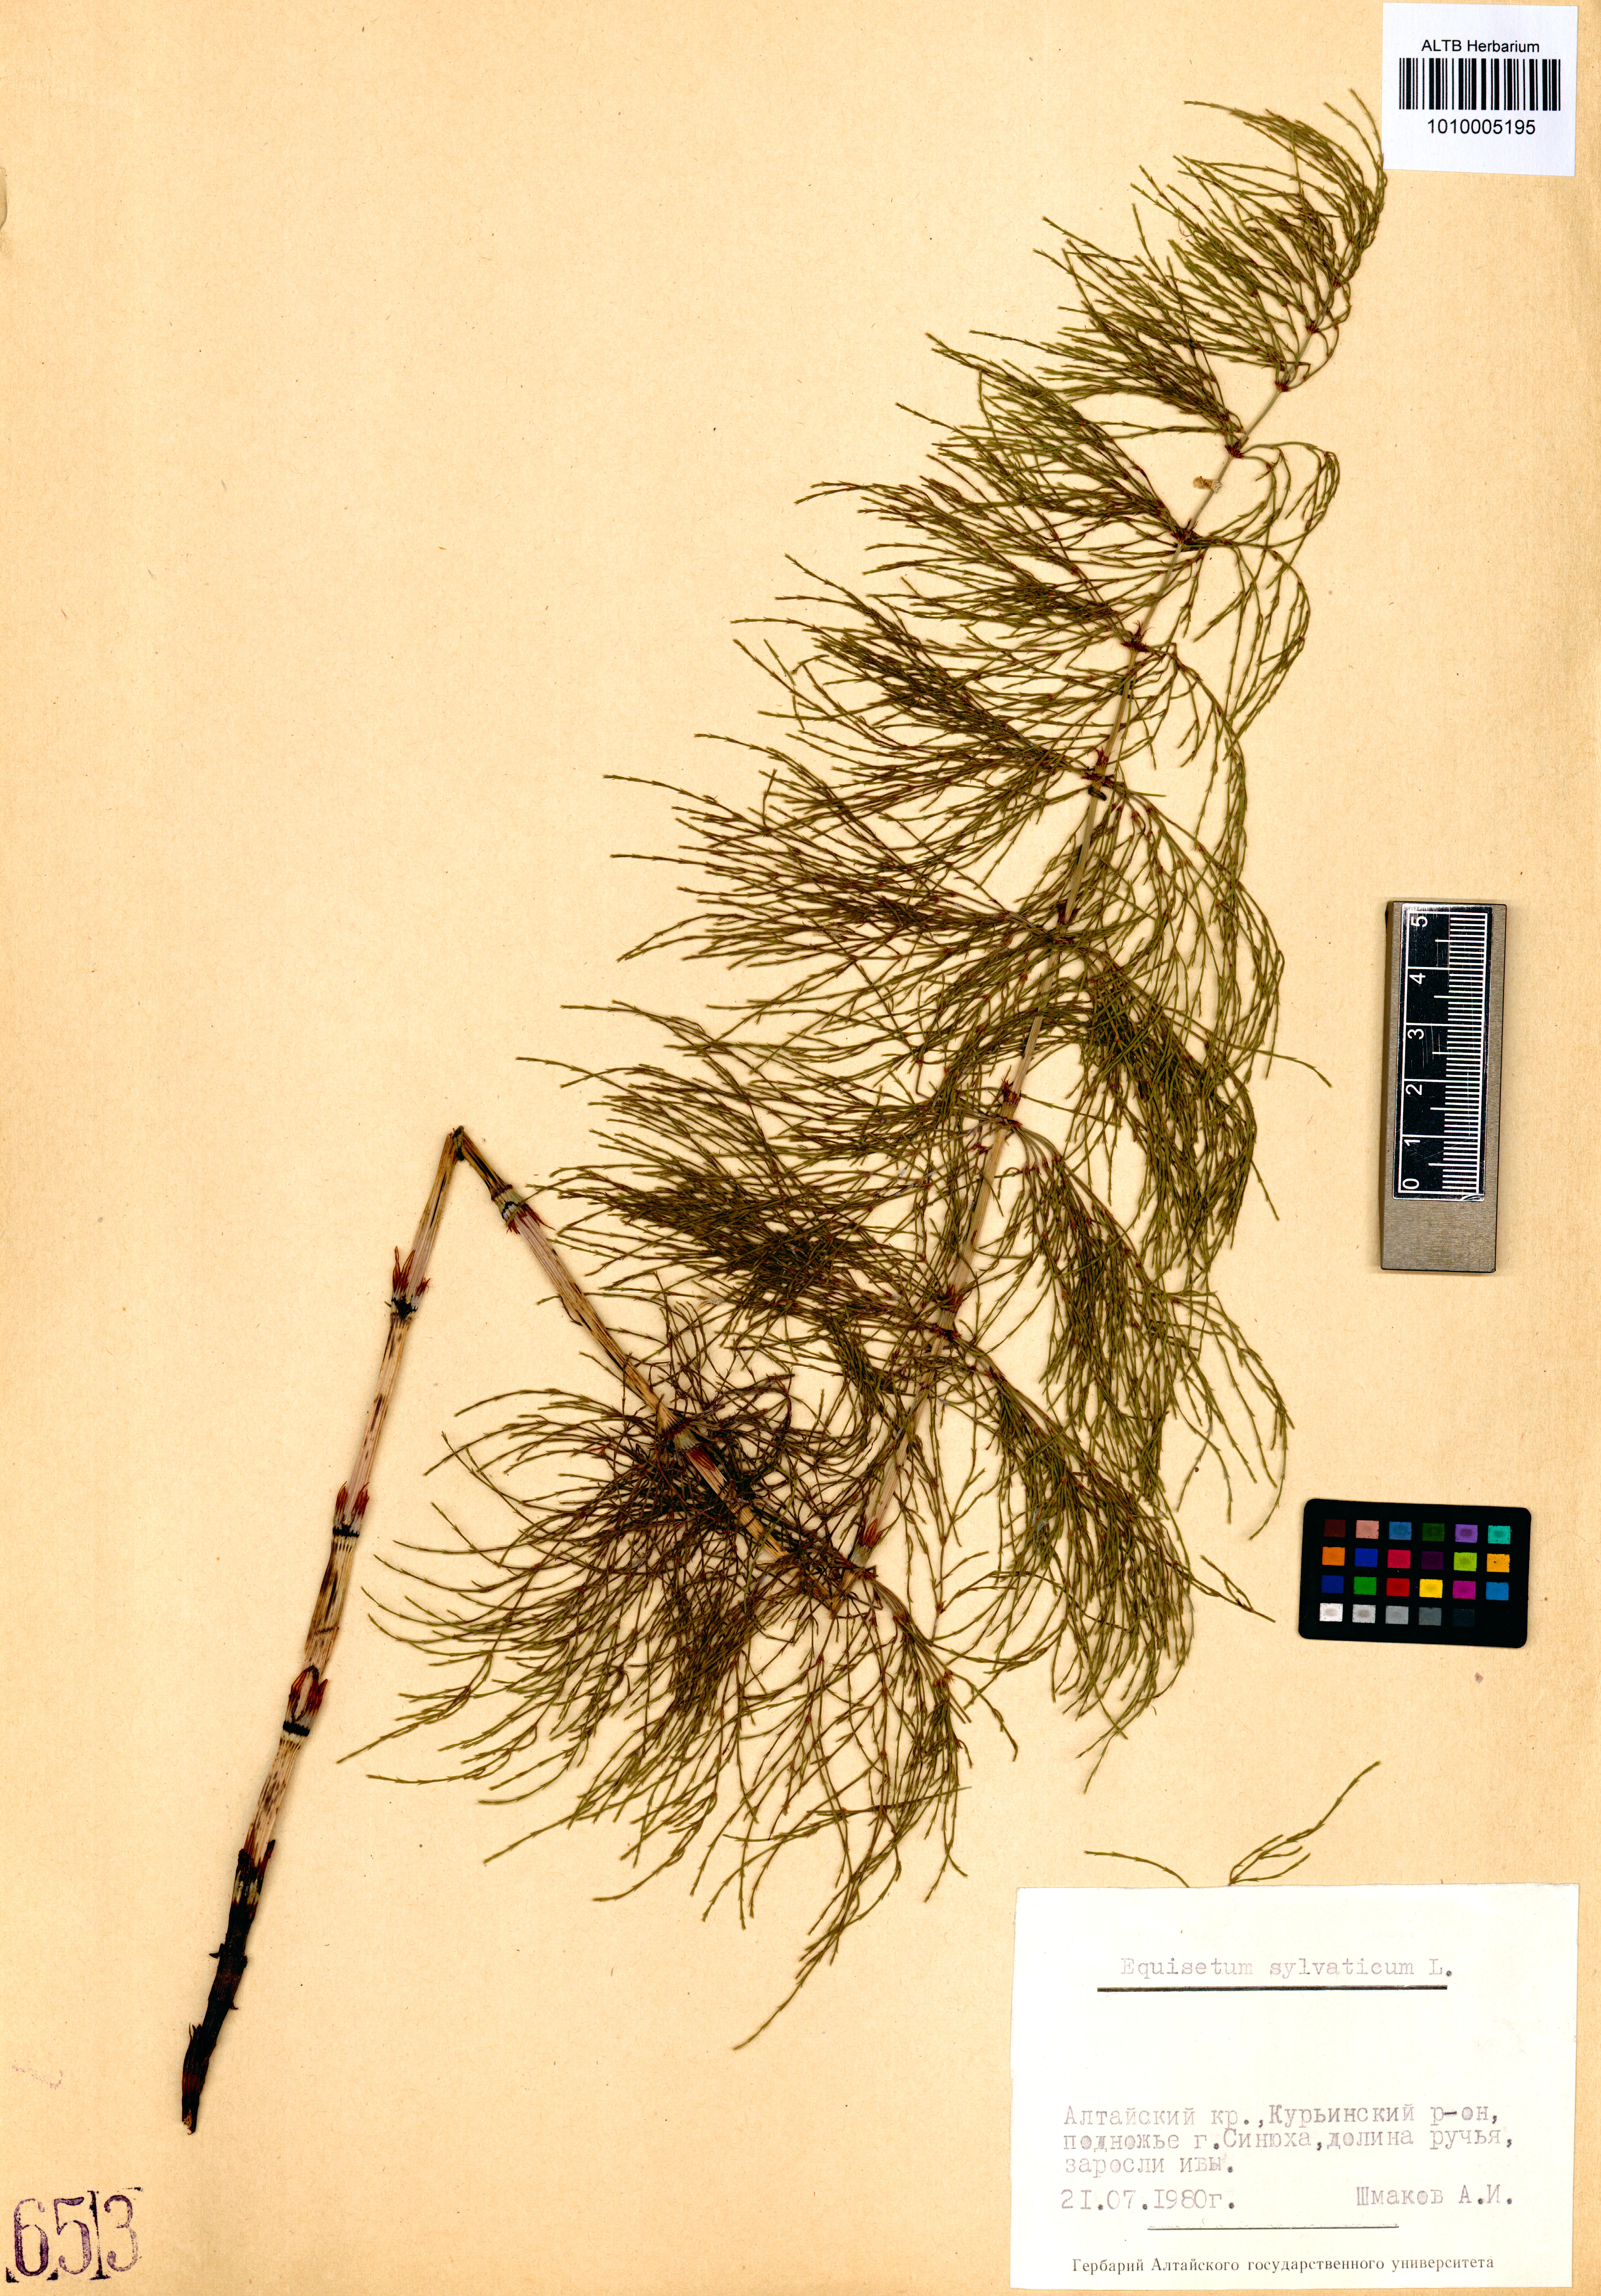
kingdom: Plantae
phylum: Tracheophyta
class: Polypodiopsida
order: Equisetales
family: Equisetaceae
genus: Equisetum
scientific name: Equisetum sylvaticum
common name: Wood horsetail
